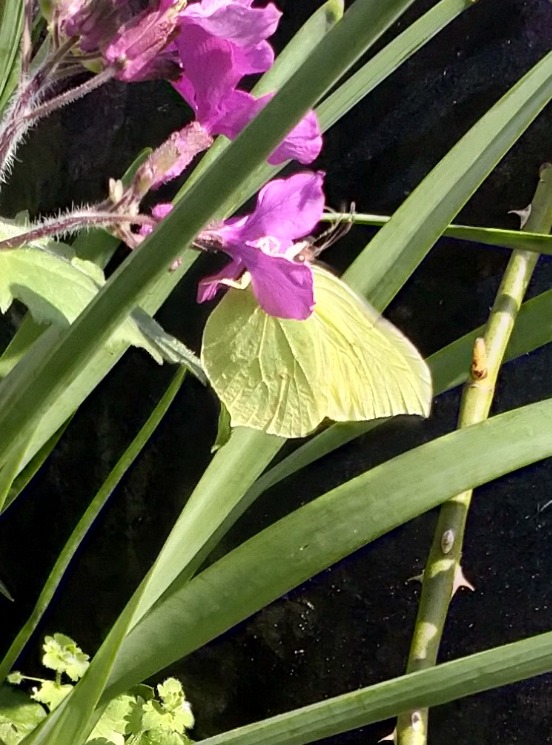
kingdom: Animalia
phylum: Arthropoda
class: Insecta
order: Lepidoptera
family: Pieridae
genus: Gonepteryx
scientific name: Gonepteryx rhamni
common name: Citronsommerfugl
